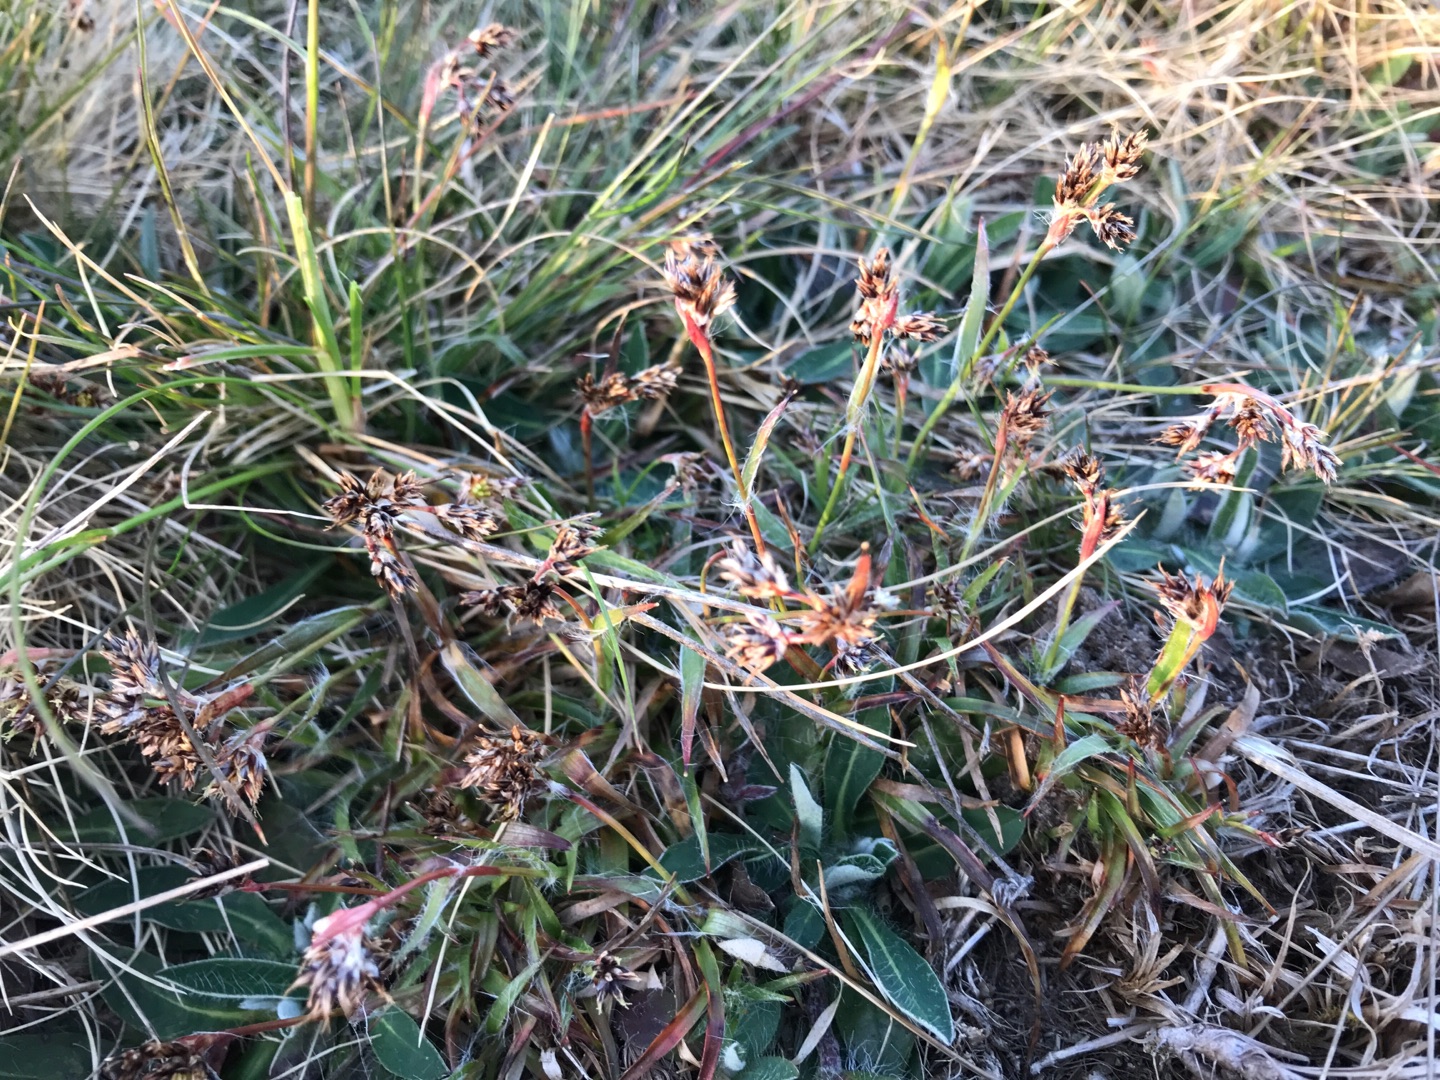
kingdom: Plantae
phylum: Tracheophyta
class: Liliopsida
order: Poales
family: Juncaceae
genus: Luzula
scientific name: Luzula campestris
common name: Mark-frytle
